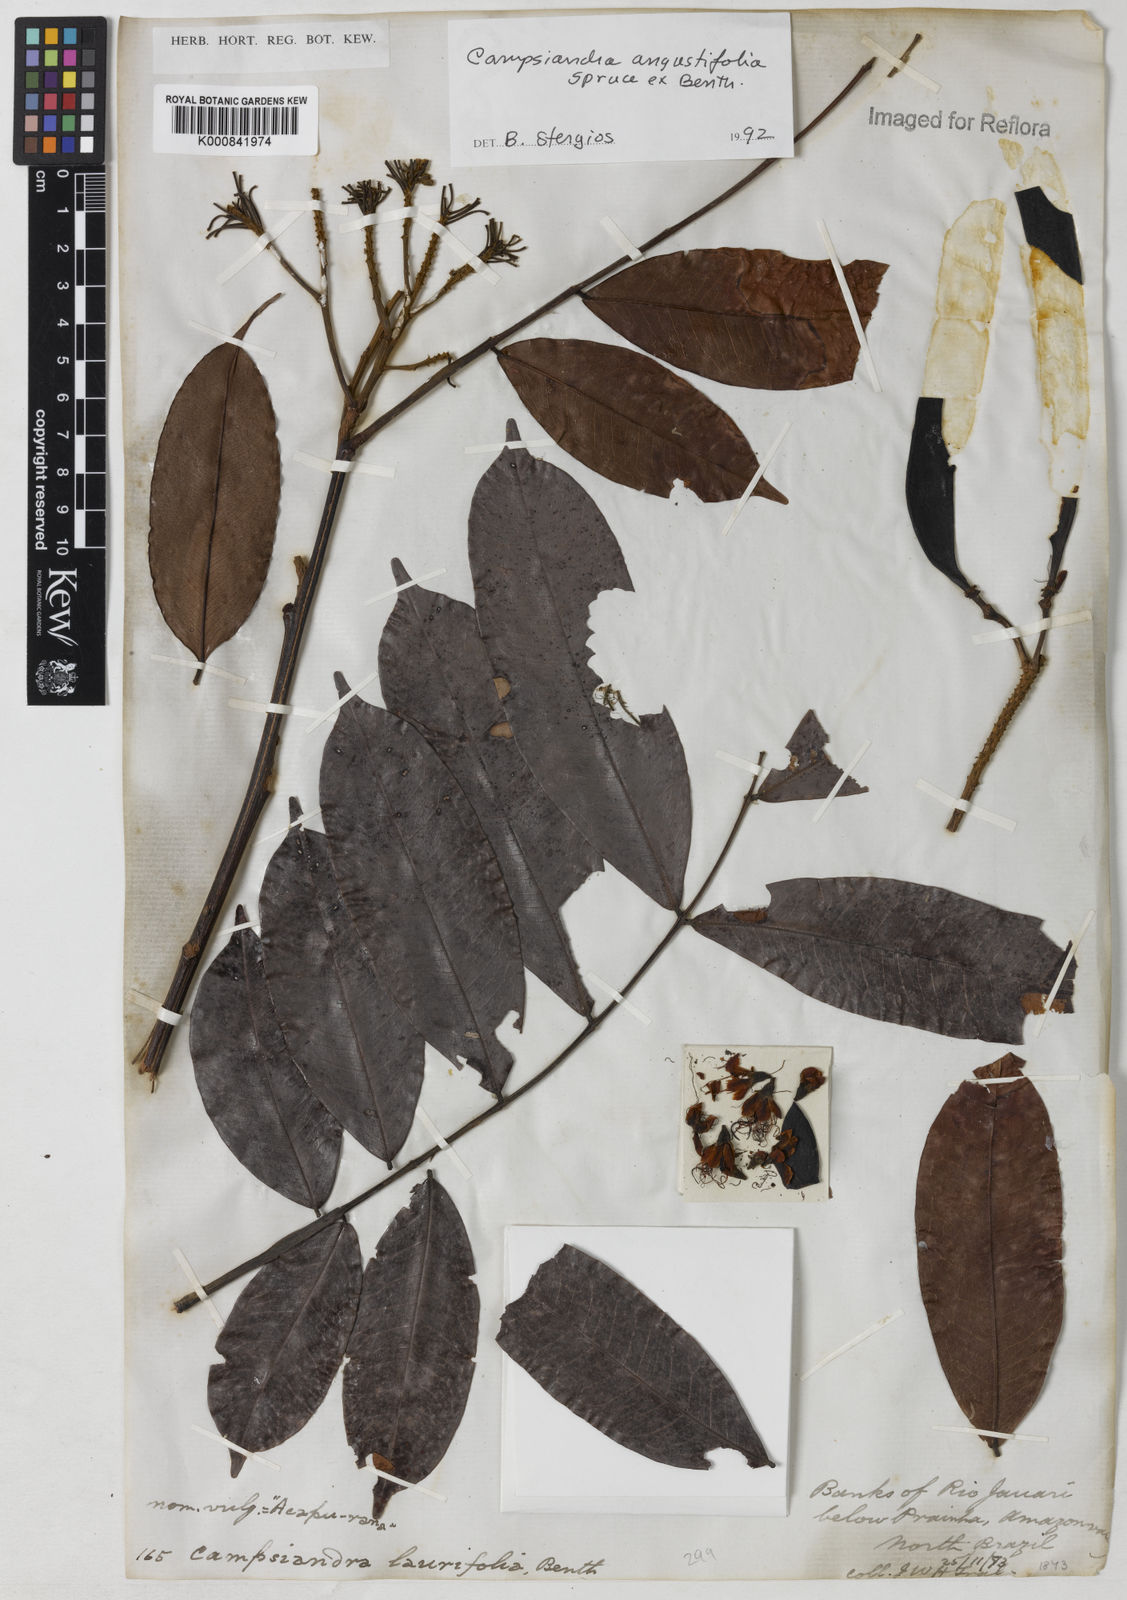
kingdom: Plantae
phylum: Tracheophyta
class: Magnoliopsida
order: Fabales
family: Fabaceae
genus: Campsiandra
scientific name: Campsiandra
